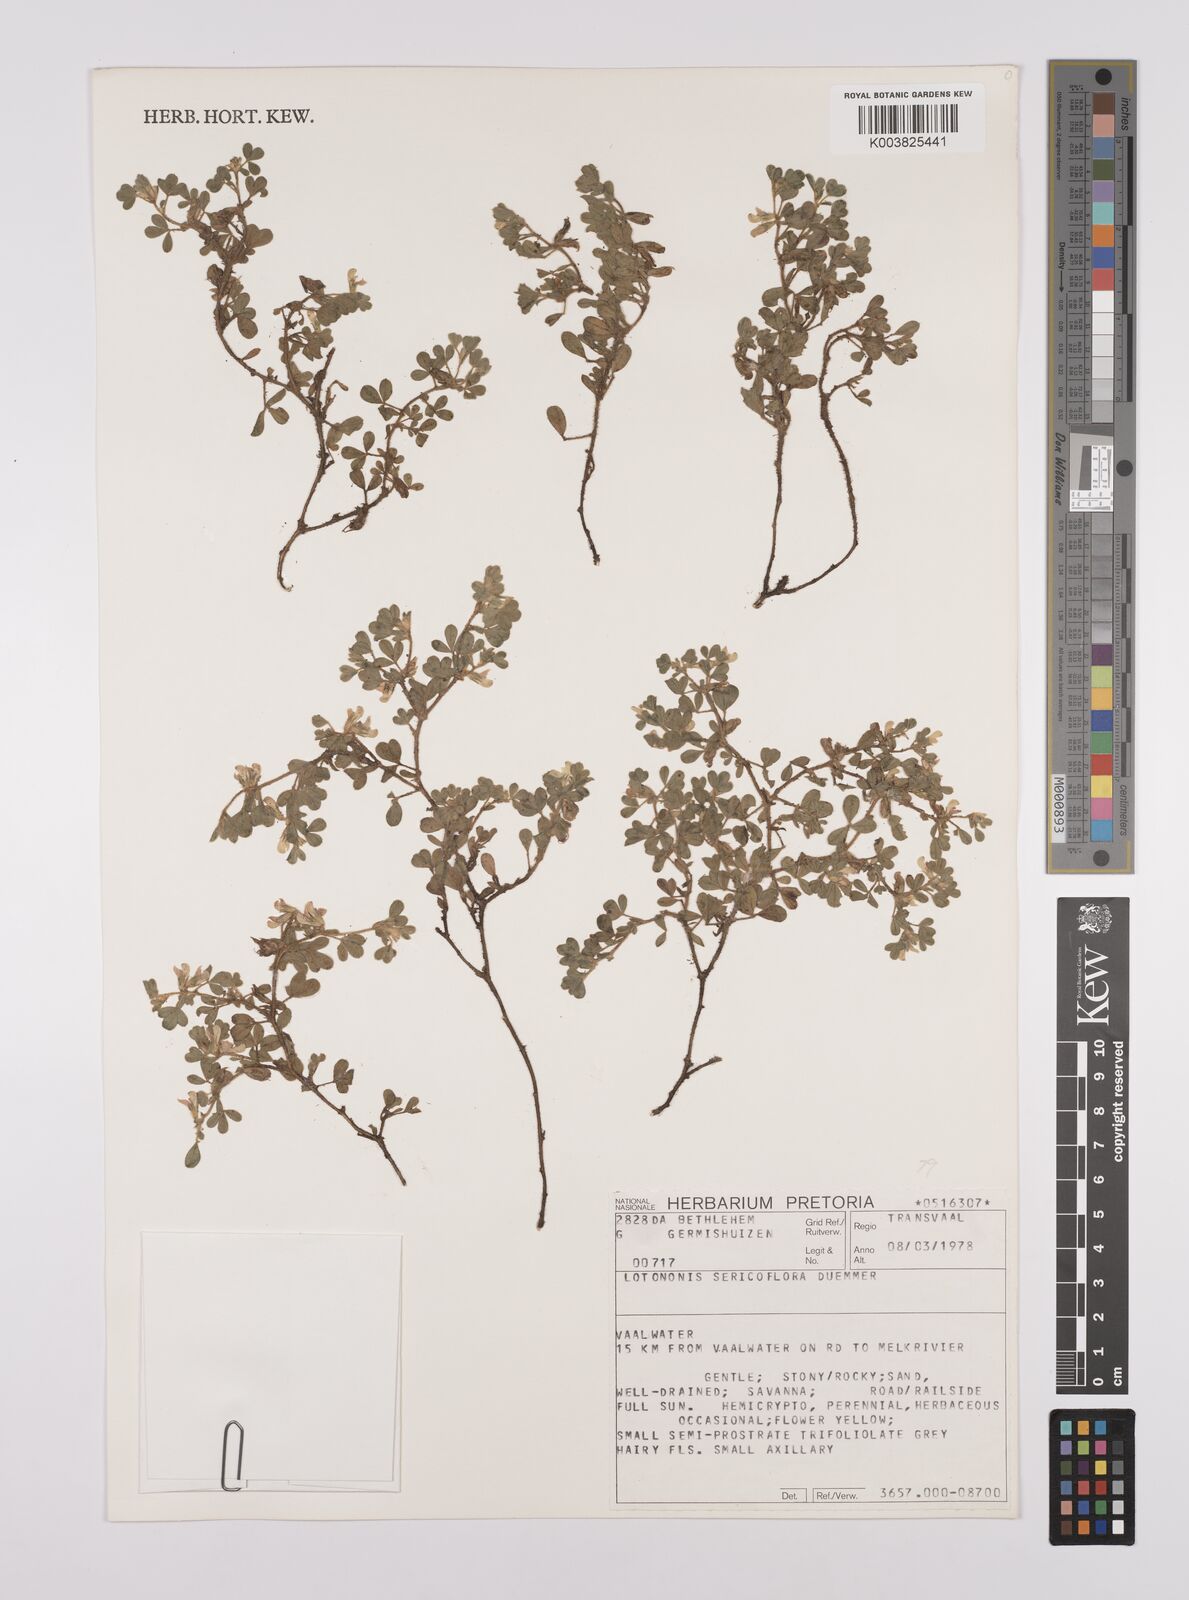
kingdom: Plantae
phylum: Tracheophyta
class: Magnoliopsida
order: Fabales
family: Fabaceae
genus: Leobordea
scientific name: Leobordea adpressa
